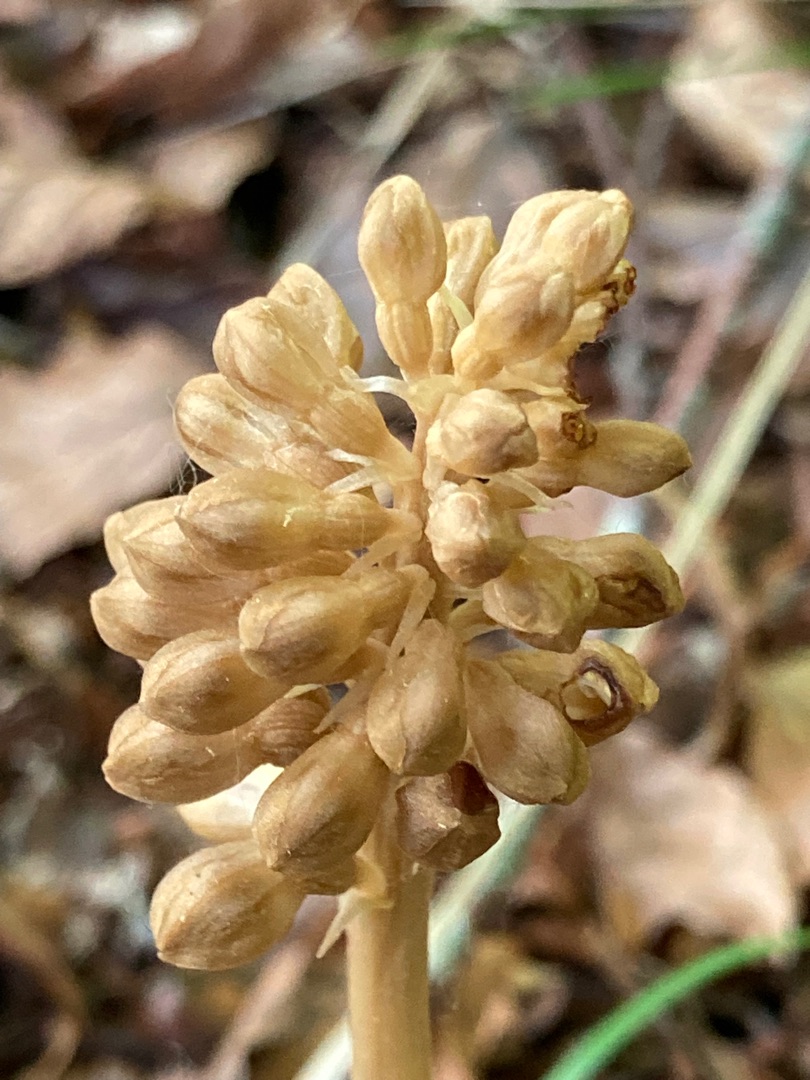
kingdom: Plantae
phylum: Tracheophyta
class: Liliopsida
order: Asparagales
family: Orchidaceae
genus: Neottia
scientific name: Neottia nidus-avis
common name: Rederod
